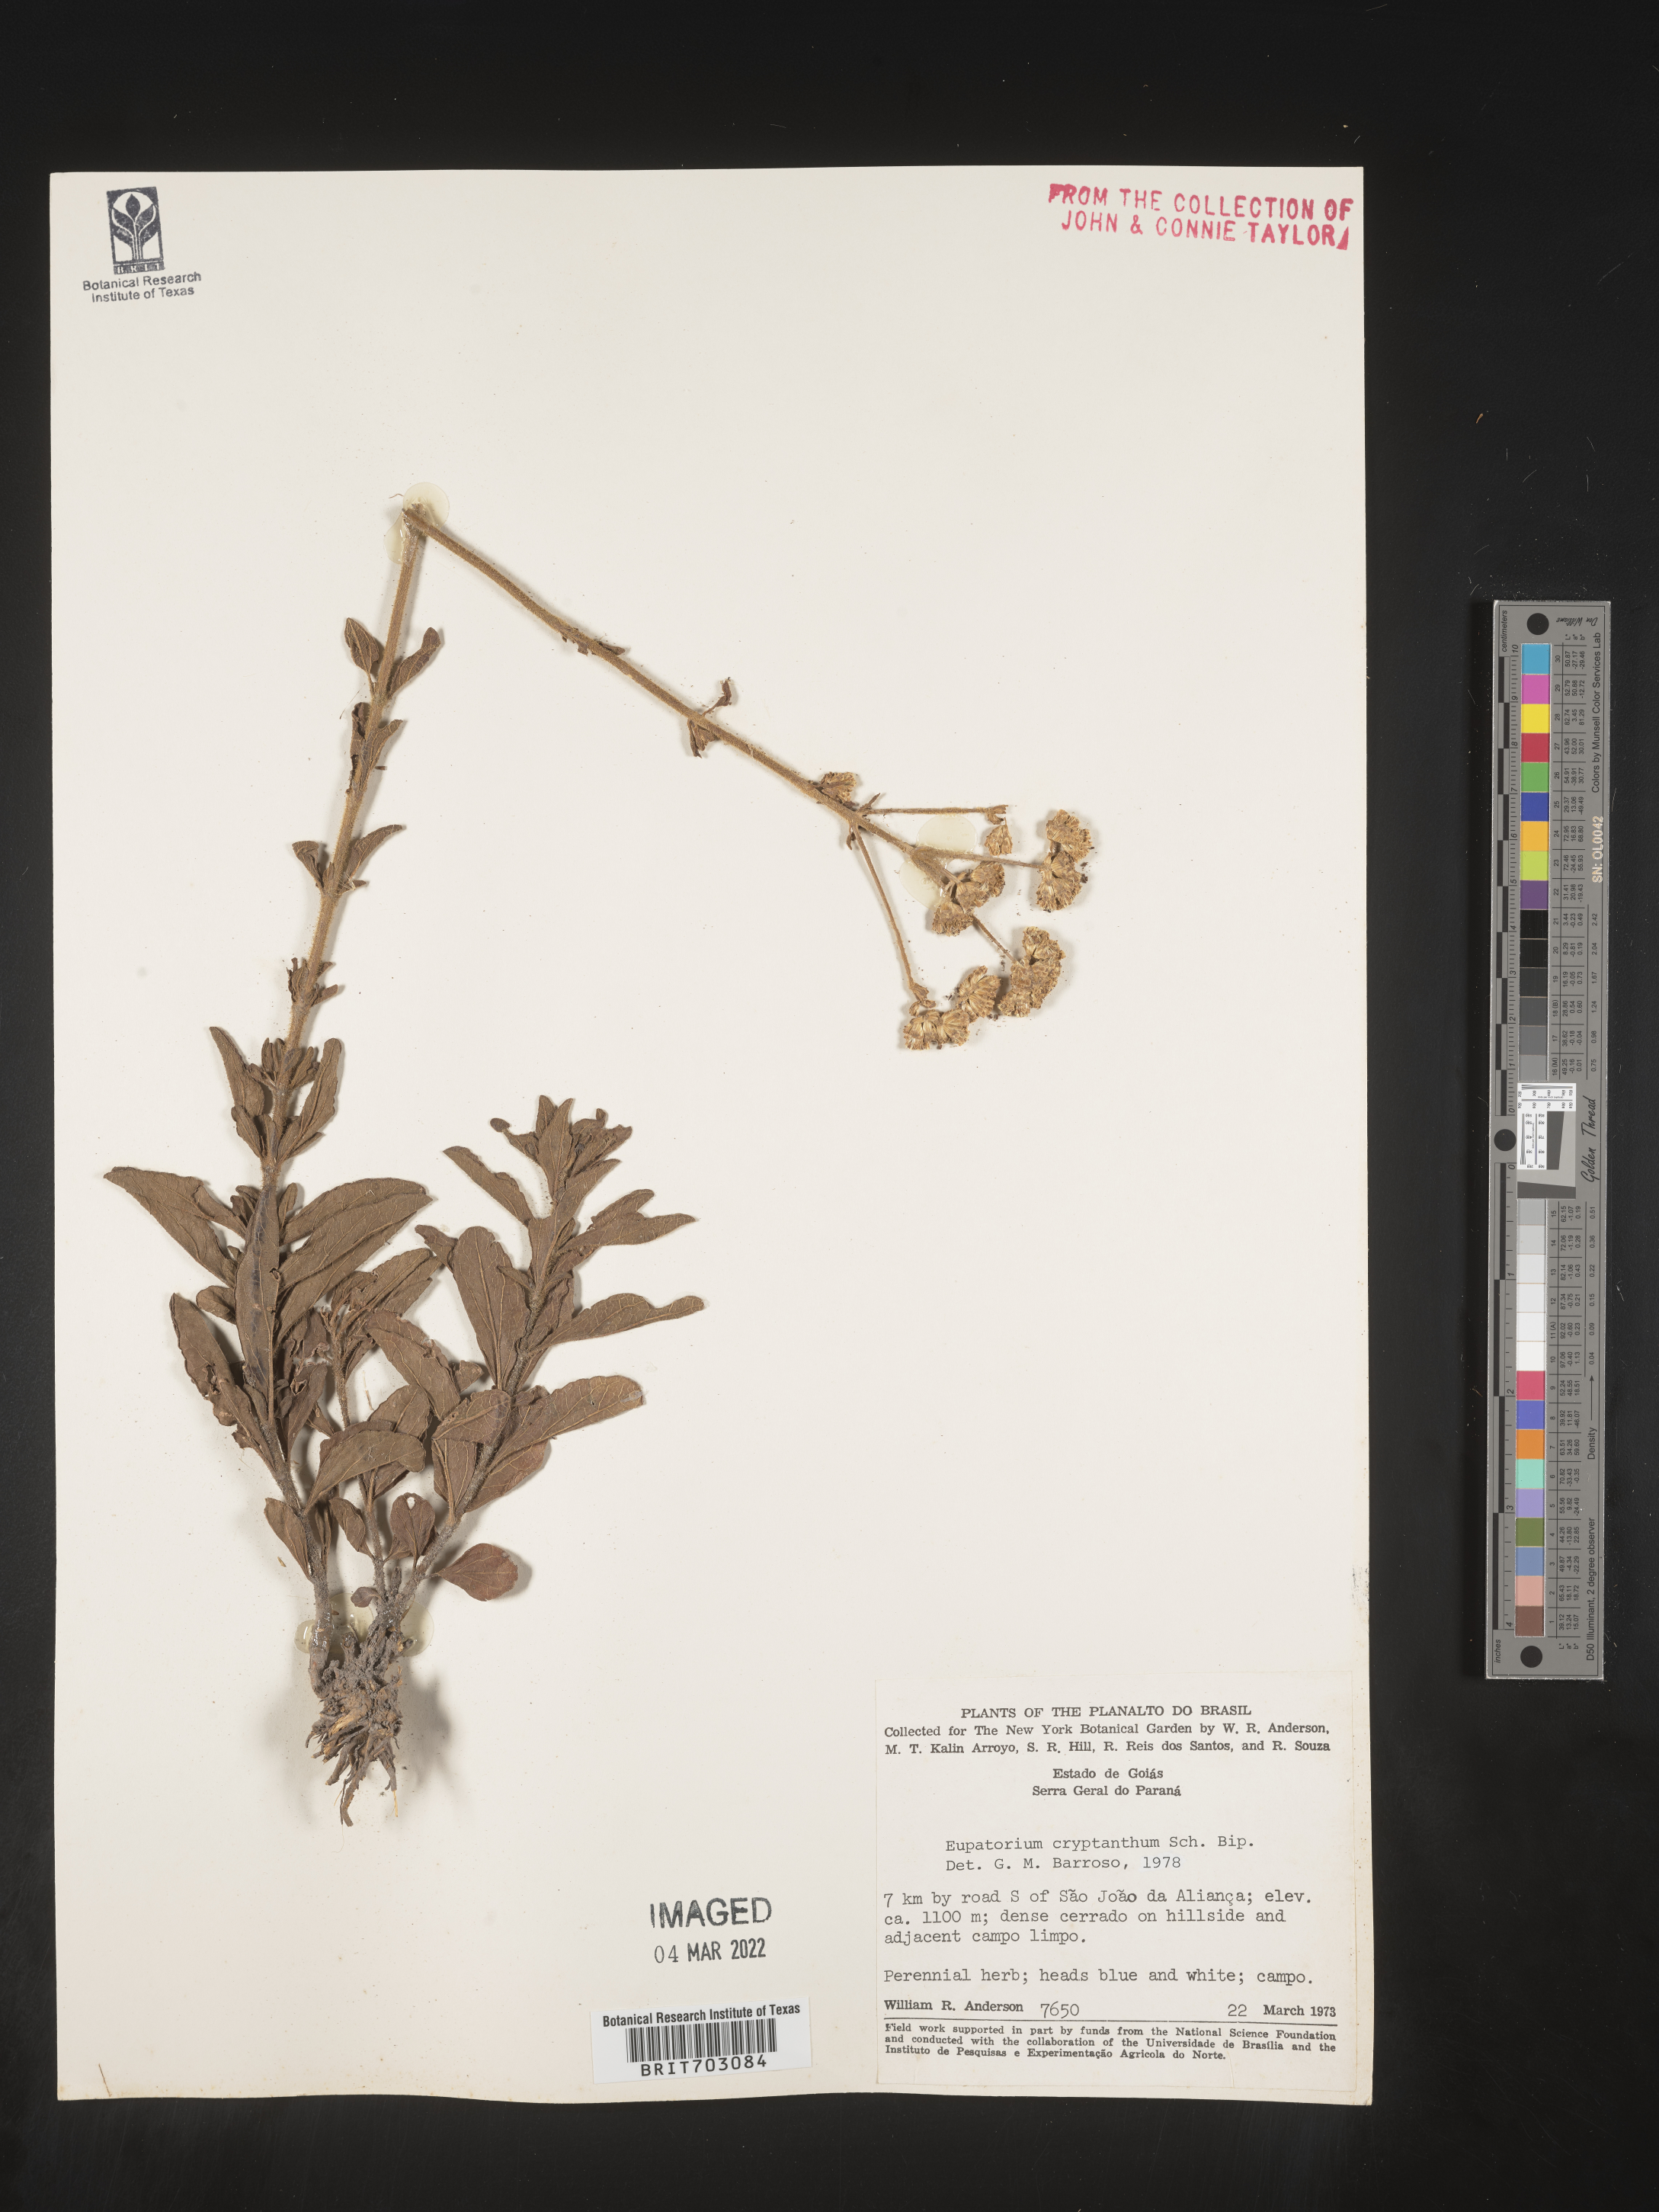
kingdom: Plantae
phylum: Tracheophyta
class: Magnoliopsida
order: Asterales
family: Asteraceae
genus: Eupatorium
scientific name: Eupatorium
